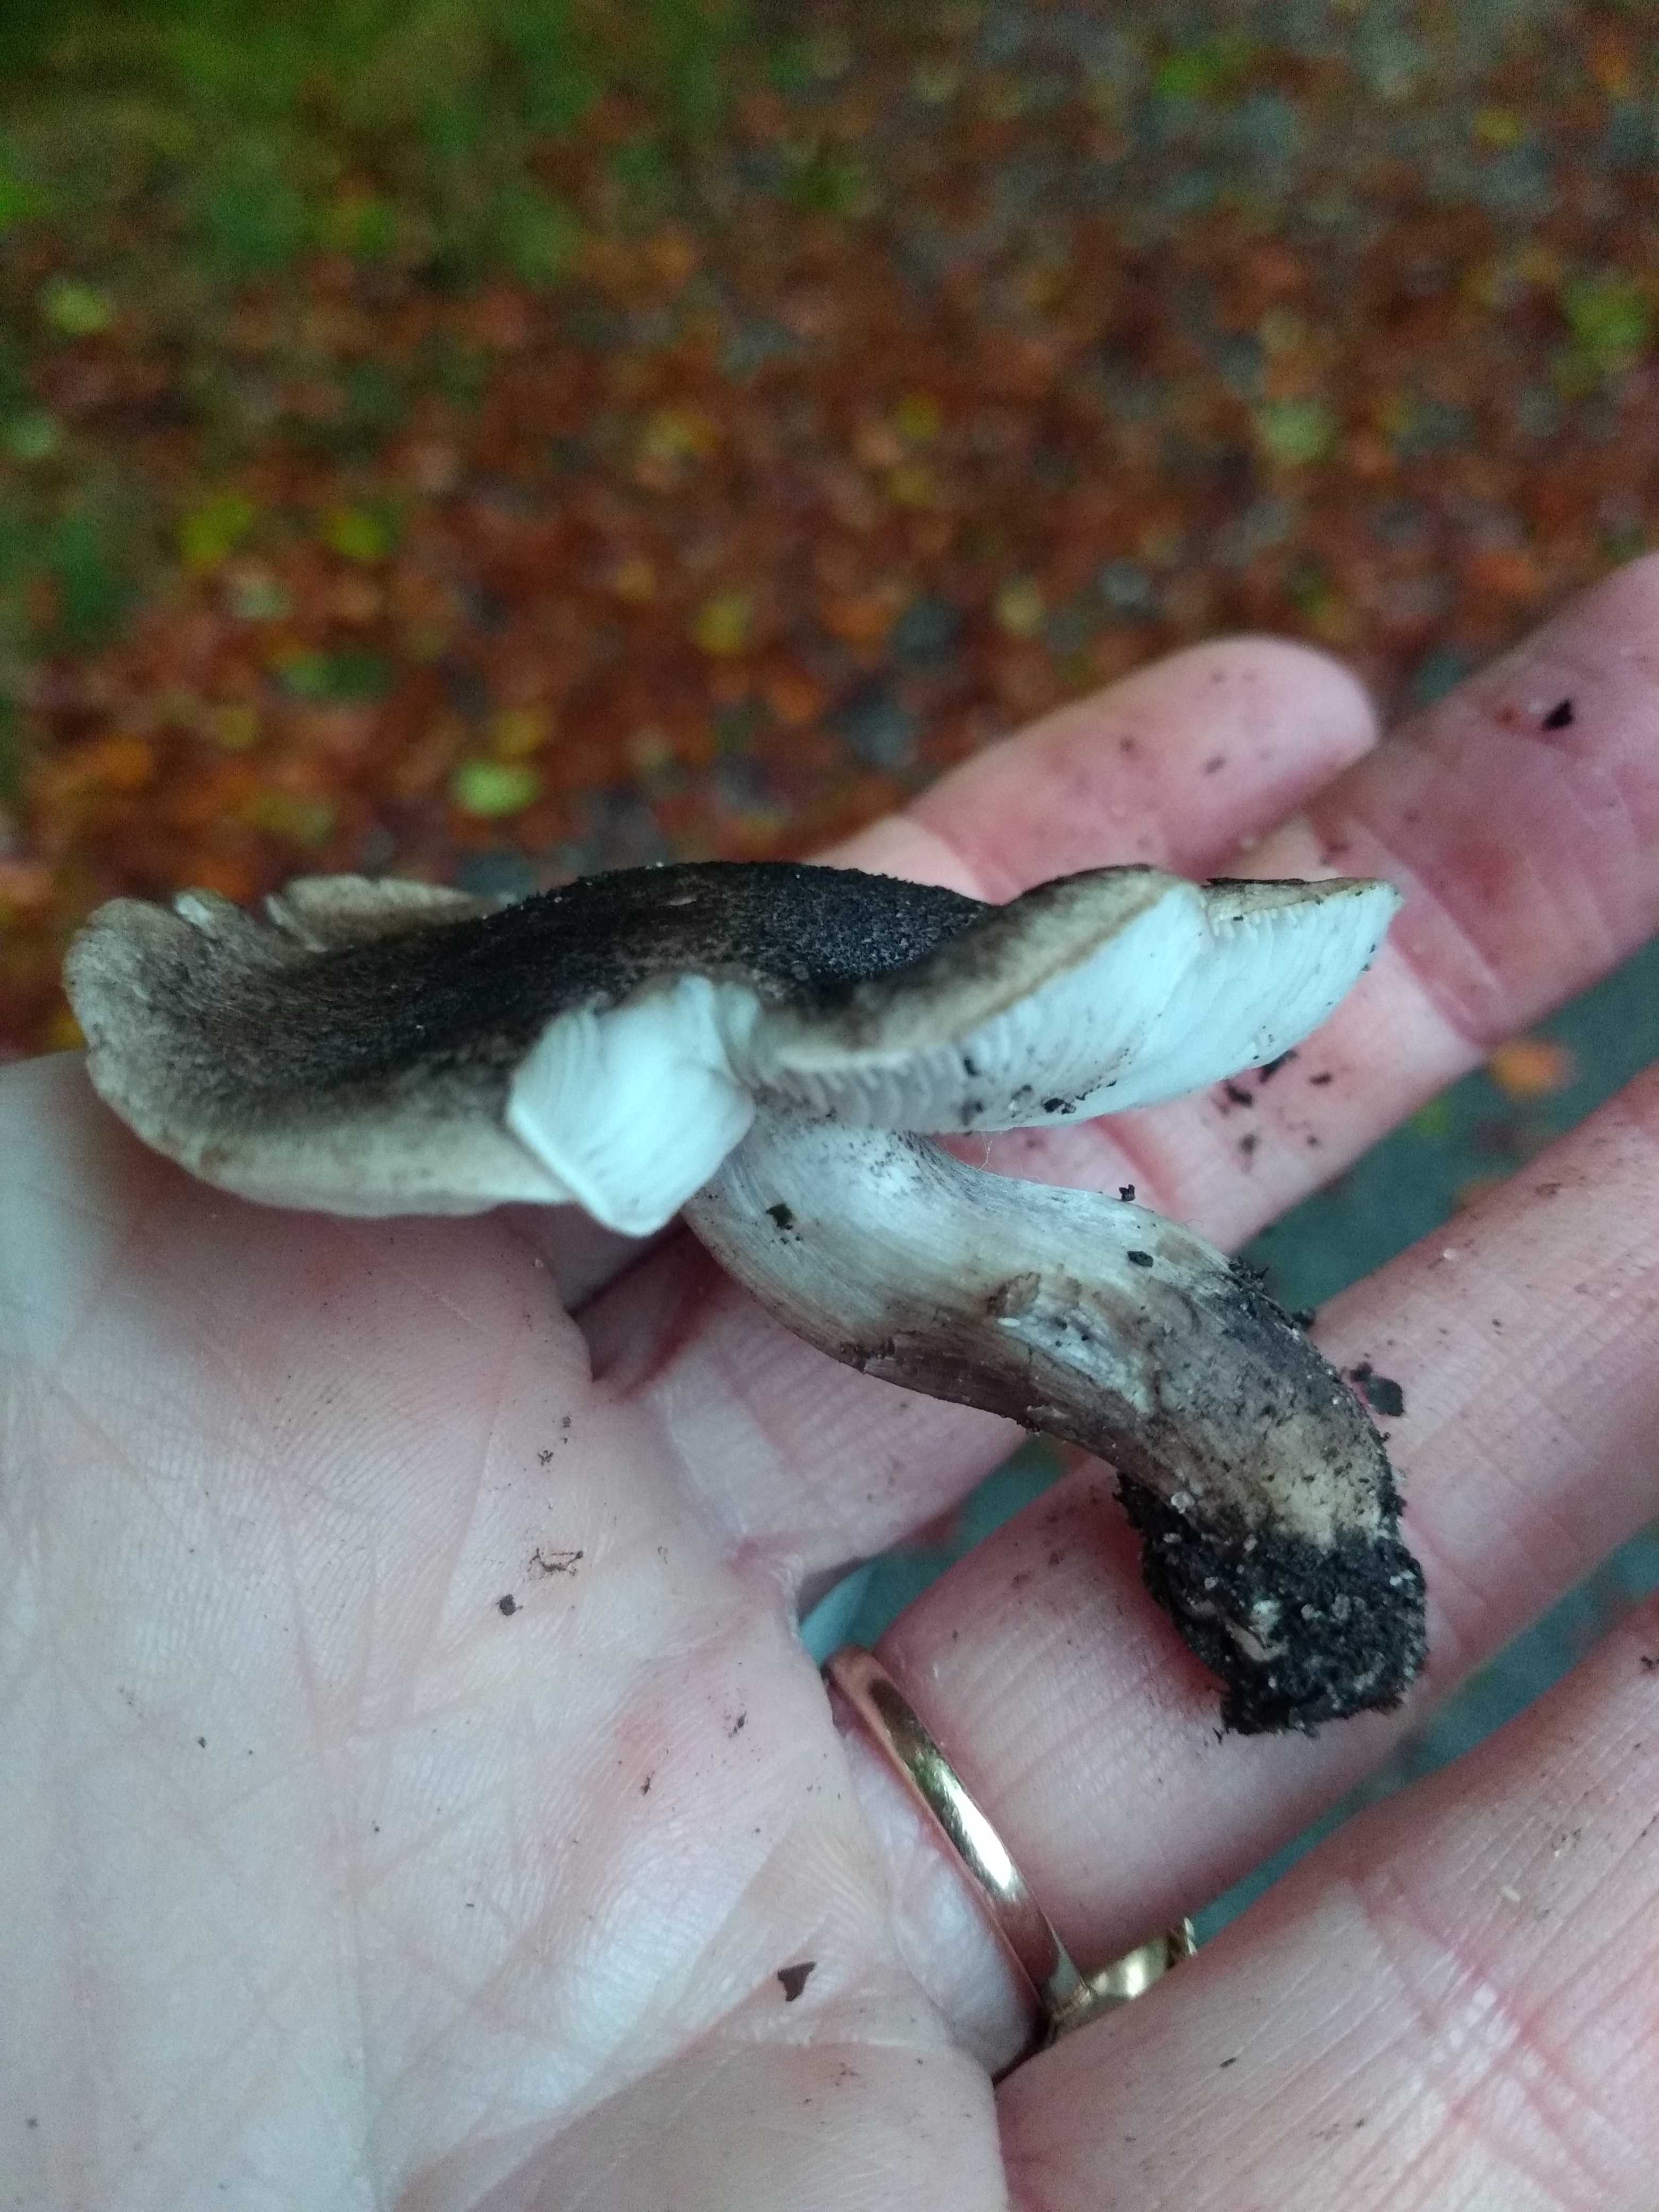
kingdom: Fungi
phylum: Basidiomycota
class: Agaricomycetes
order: Agaricales
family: Tricholomataceae
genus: Tricholoma
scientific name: Tricholoma
